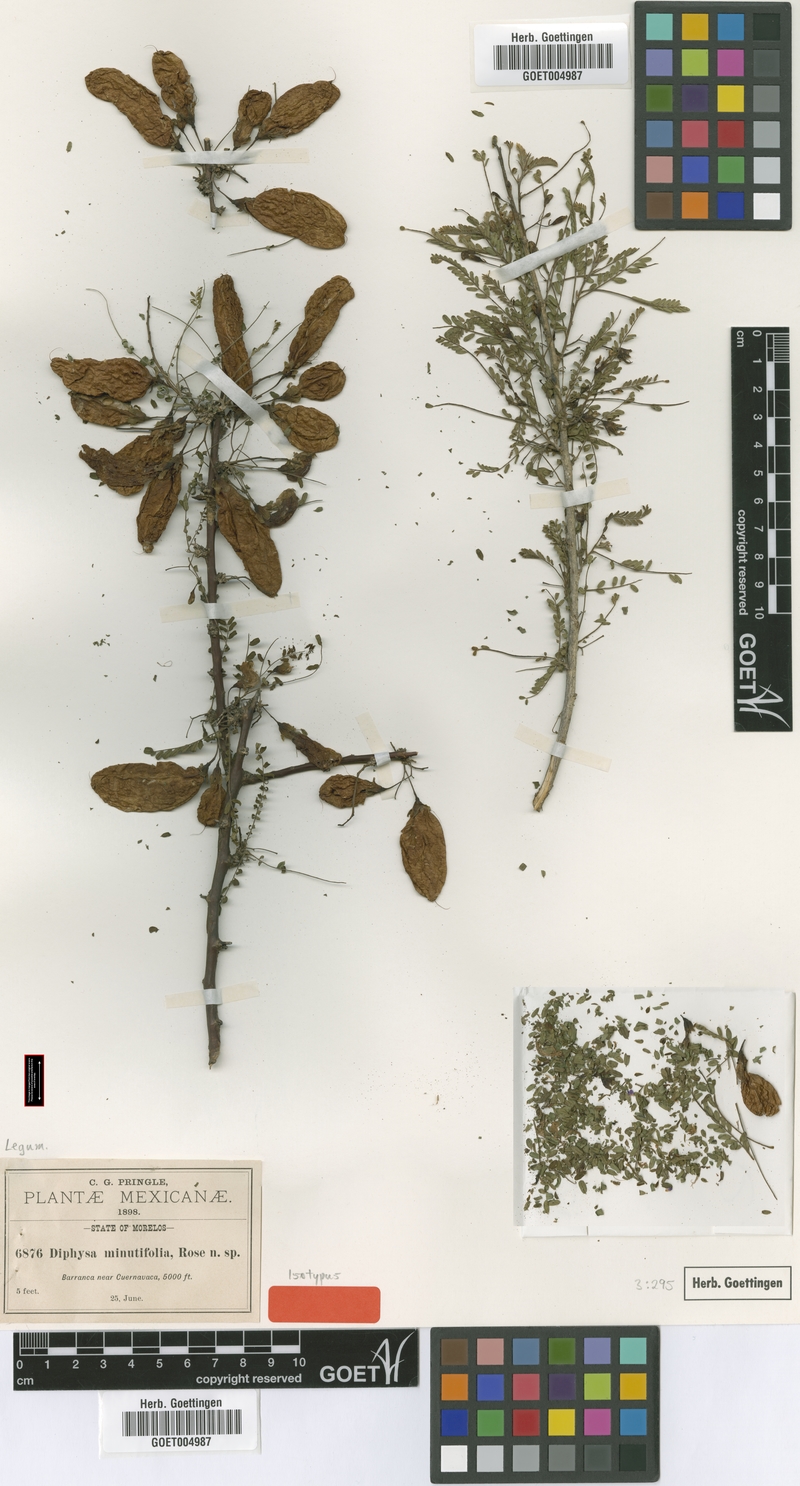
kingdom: Plantae
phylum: Tracheophyta
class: Magnoliopsida
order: Fabales
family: Fabaceae
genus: Diphysa
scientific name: Diphysa minutifolia
